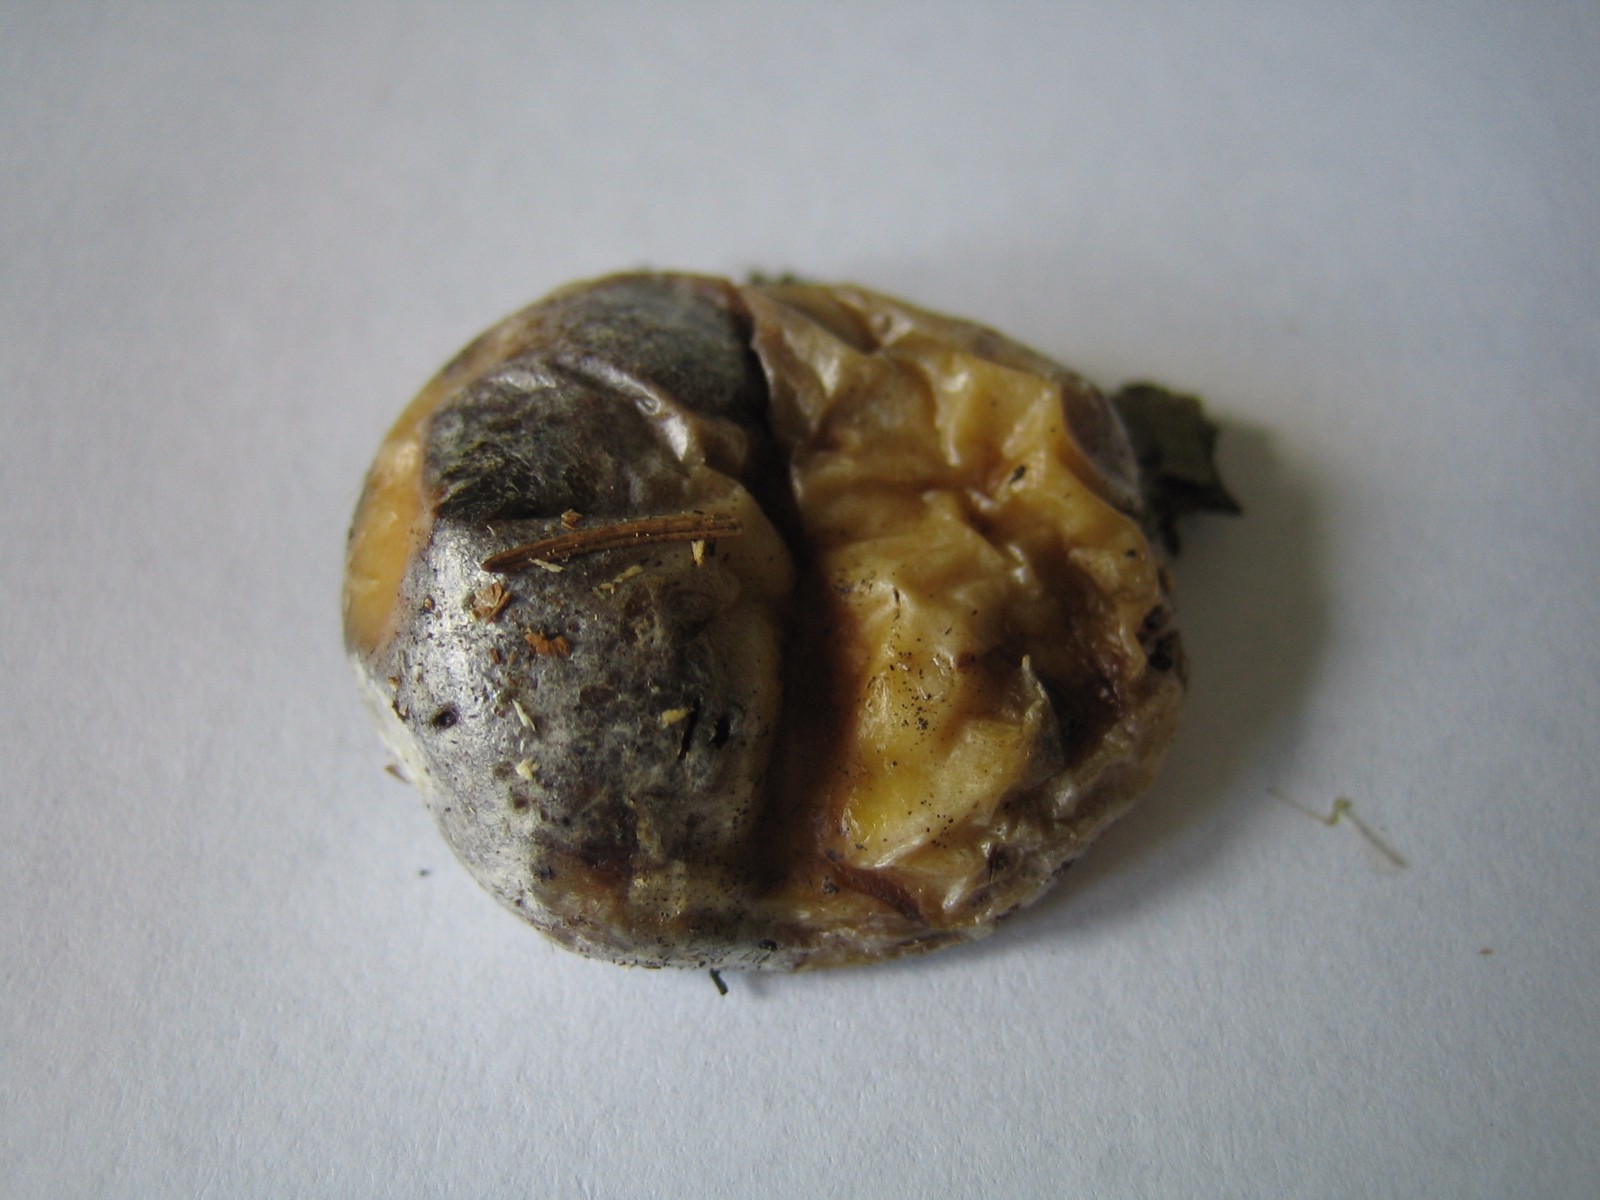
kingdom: Protozoa
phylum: Mycetozoa
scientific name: Mycetozoa
